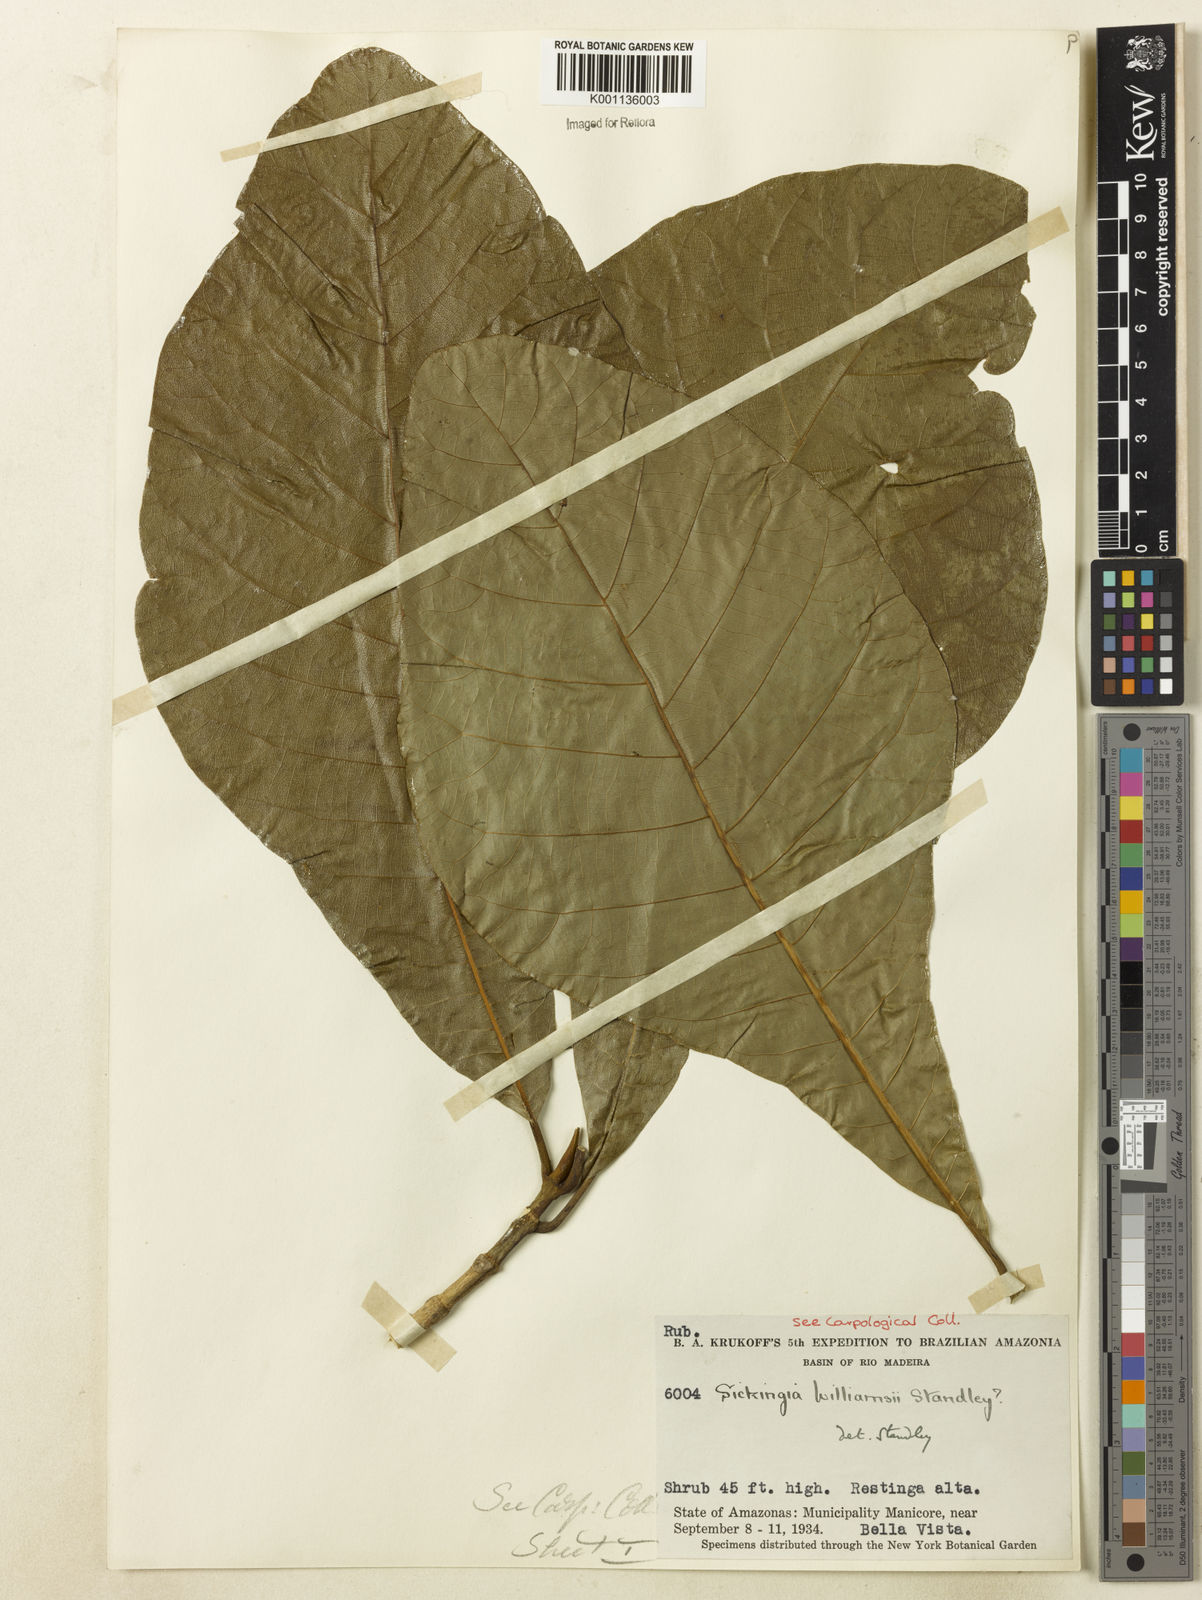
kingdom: Plantae
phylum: Tracheophyta
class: Magnoliopsida
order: Gentianales
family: Rubiaceae
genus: Simira
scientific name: Simira
